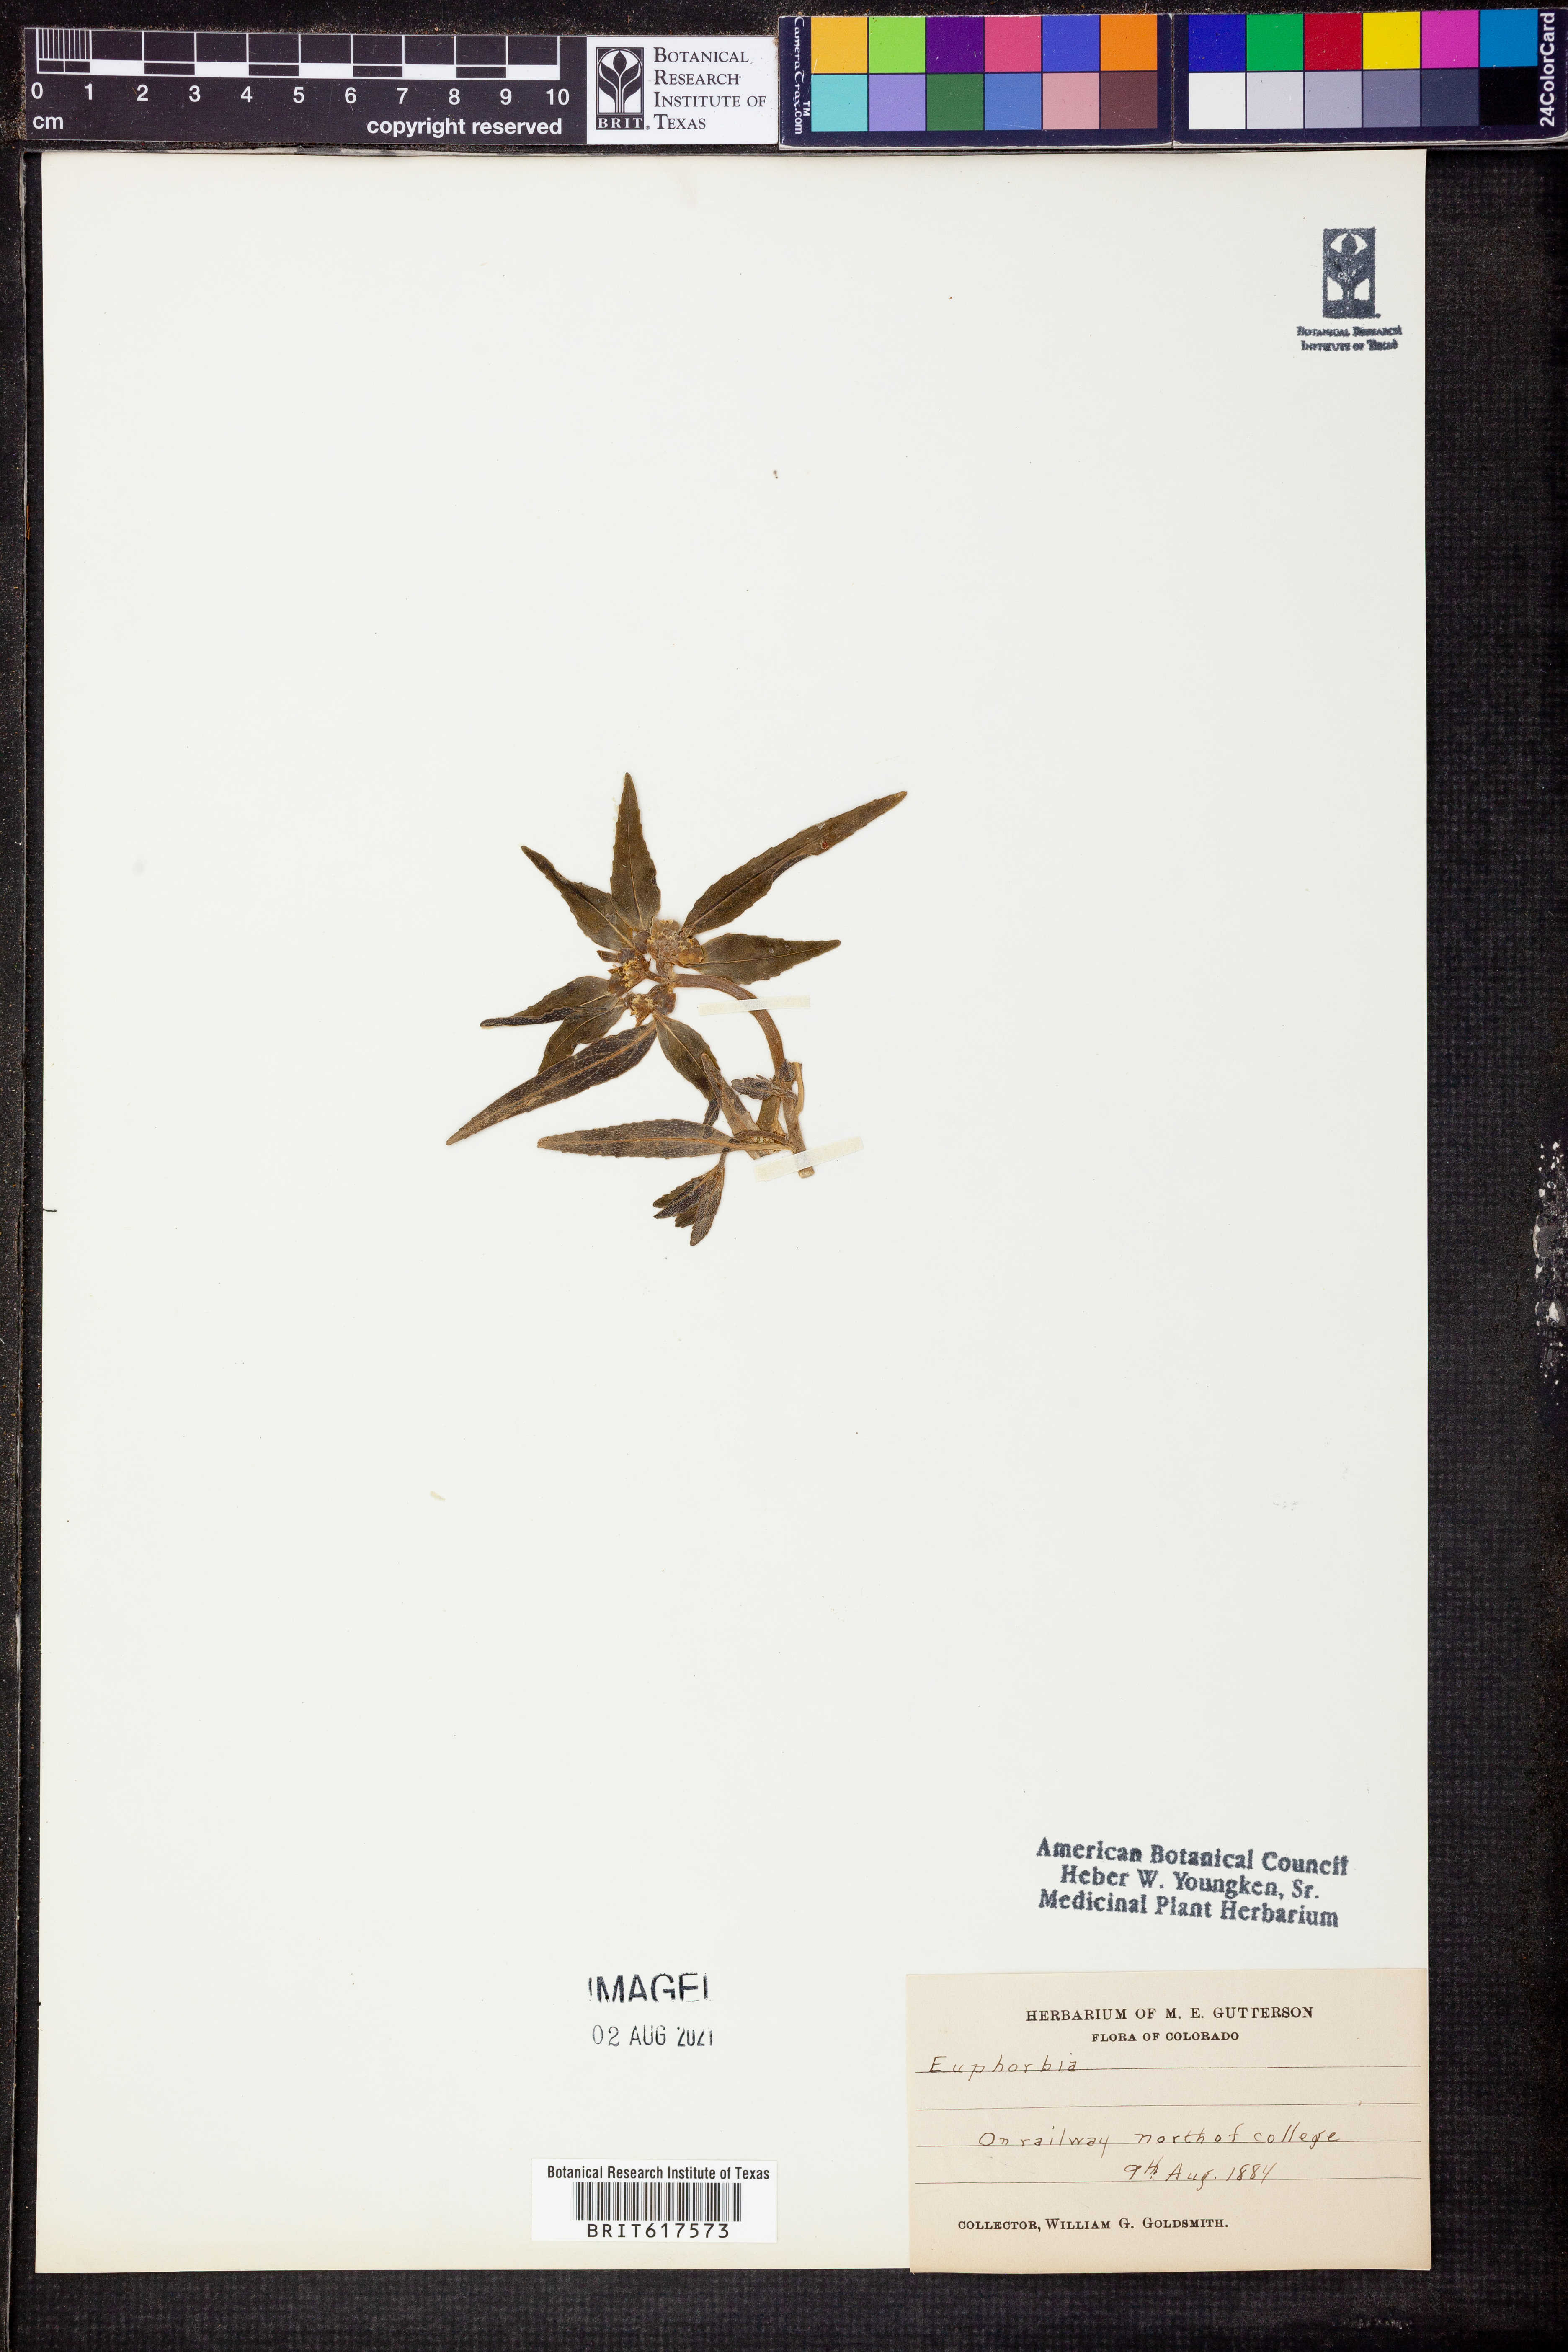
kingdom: Plantae
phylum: Tracheophyta
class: Magnoliopsida
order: Malpighiales
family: Euphorbiaceae
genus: Euphorbia
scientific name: Euphorbia
